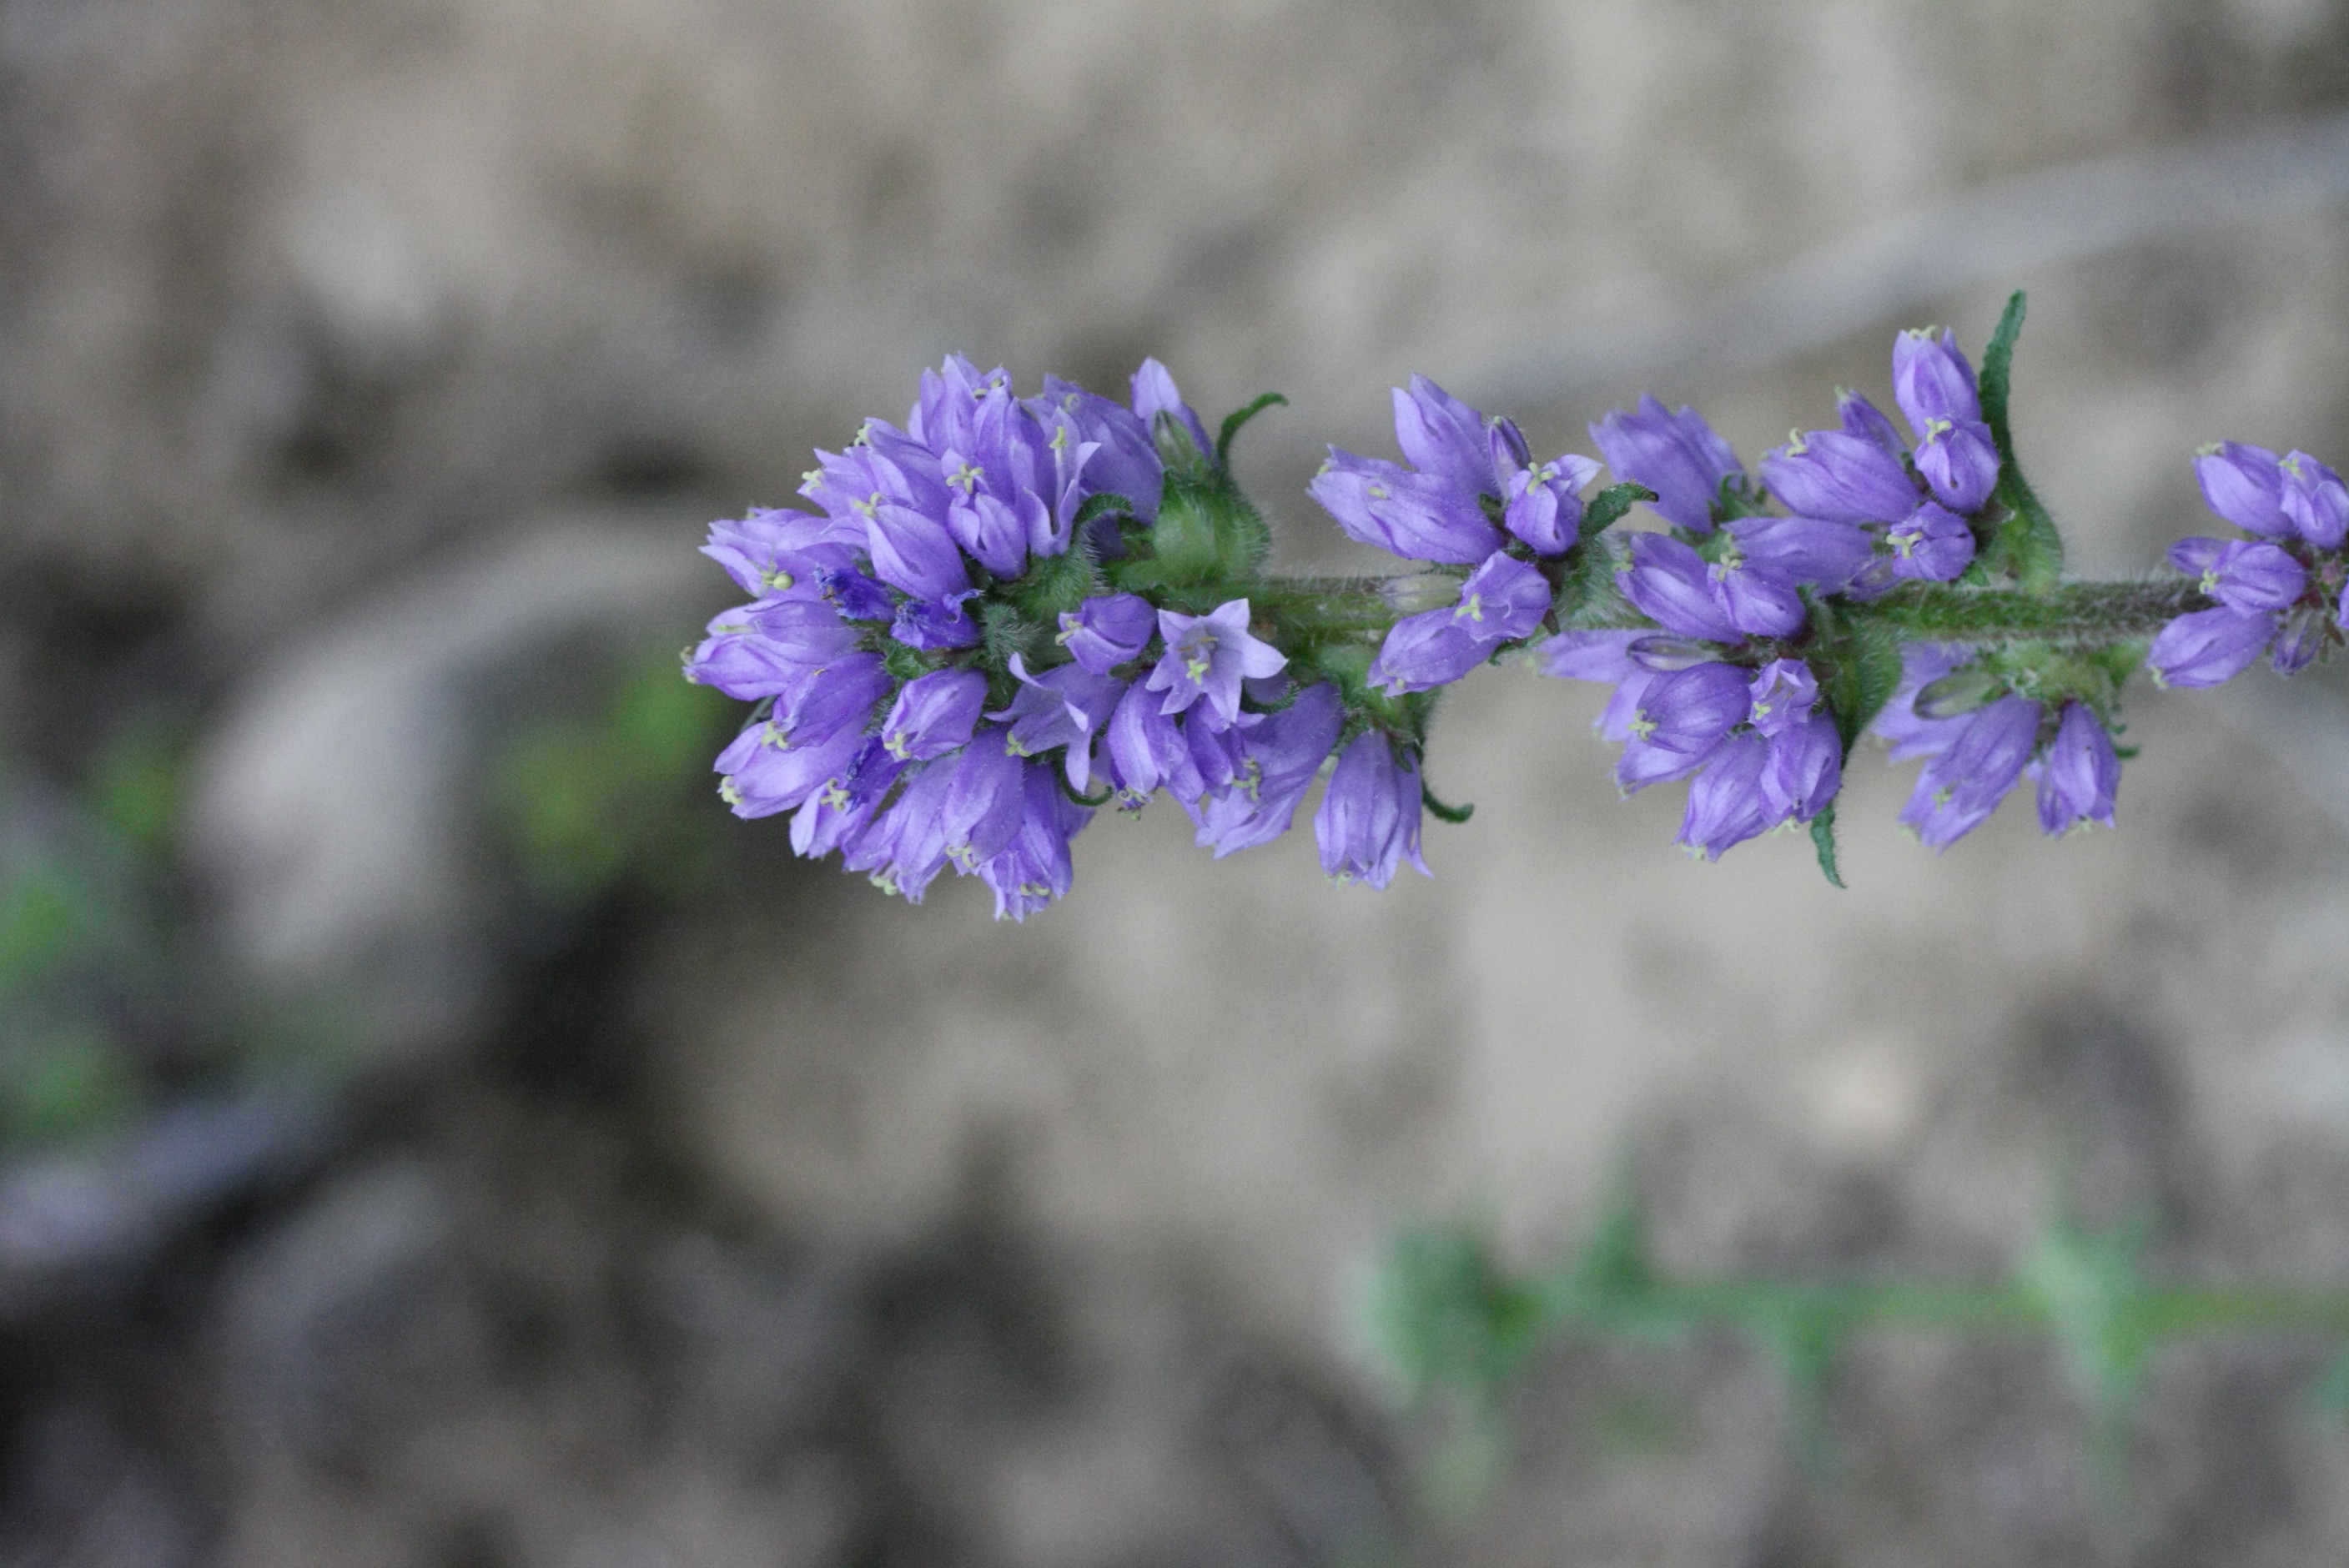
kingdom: Plantae
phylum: Tracheophyta
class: Magnoliopsida
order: Asterales
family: Campanulaceae
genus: Campanula
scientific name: Campanula cervicaria
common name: Bristly bellflower
